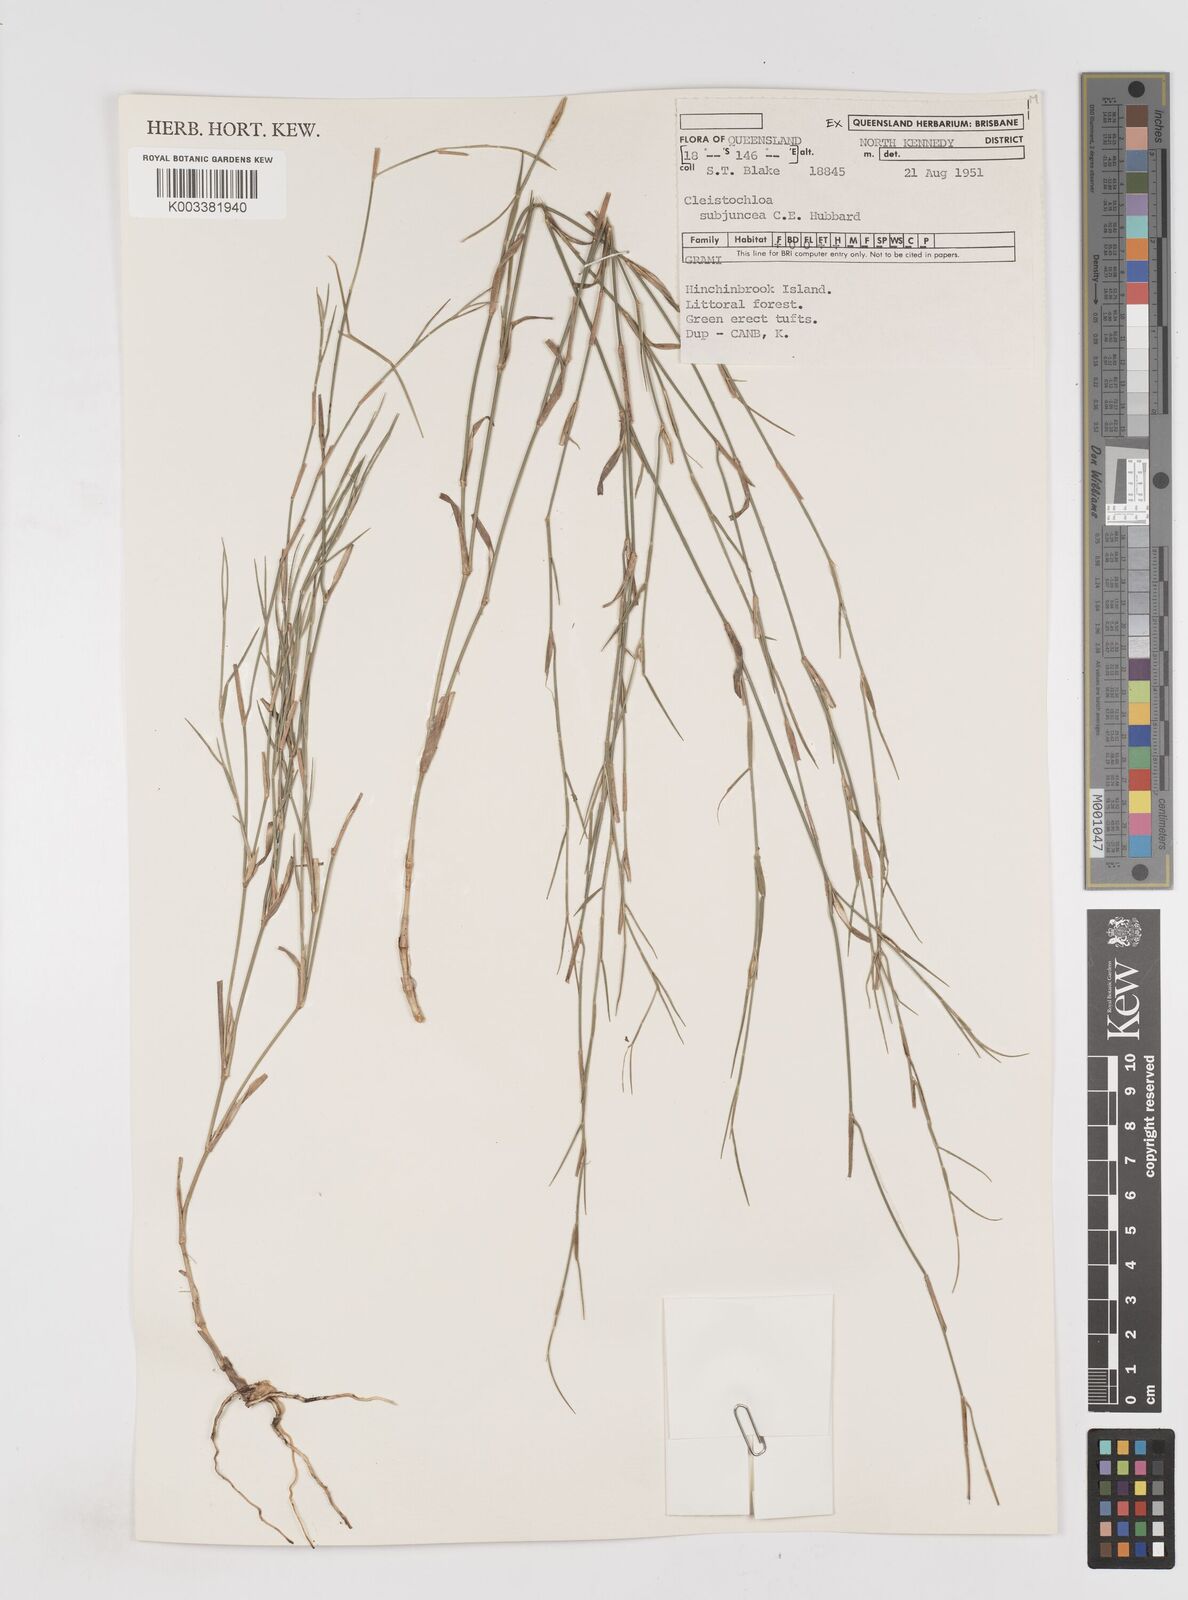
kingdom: Plantae
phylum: Tracheophyta
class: Liliopsida
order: Poales
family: Poaceae
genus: Cleistochloa
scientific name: Cleistochloa subjuncea
